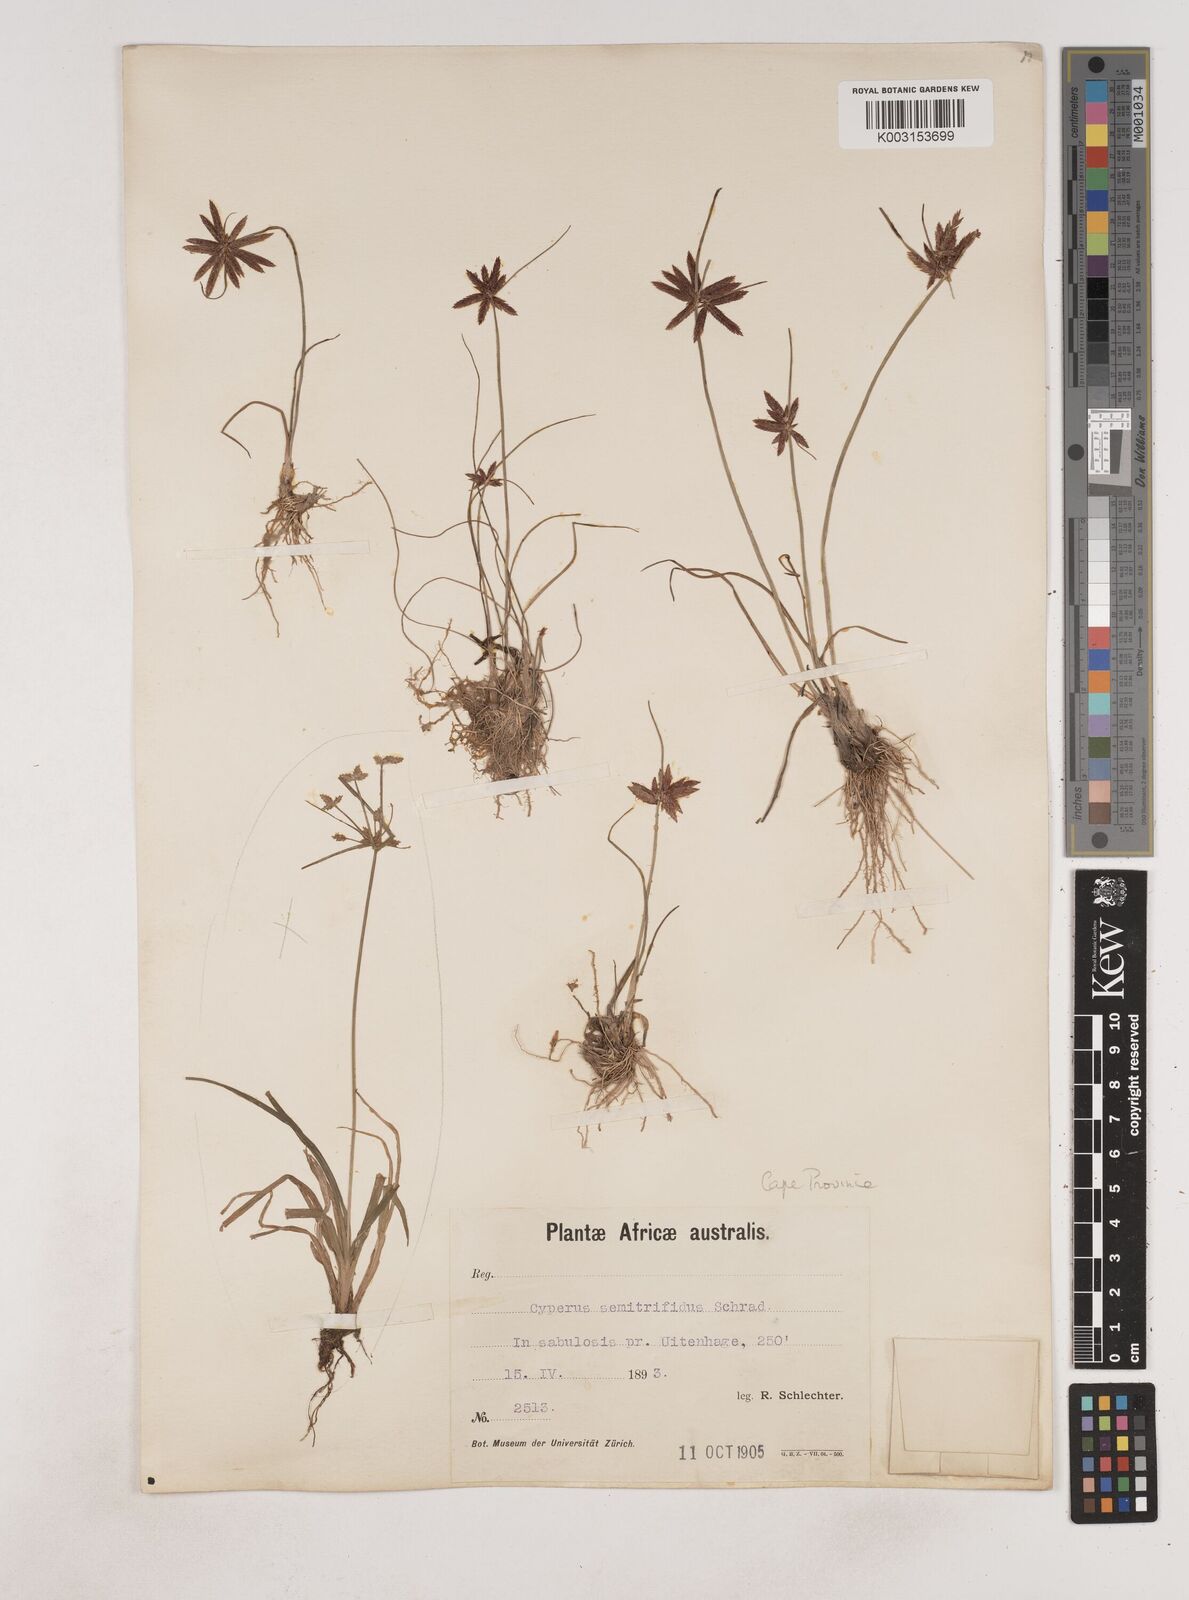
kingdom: Plantae
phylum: Tracheophyta
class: Liliopsida
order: Poales
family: Cyperaceae
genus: Cyperus
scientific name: Cyperus semitrifidus
